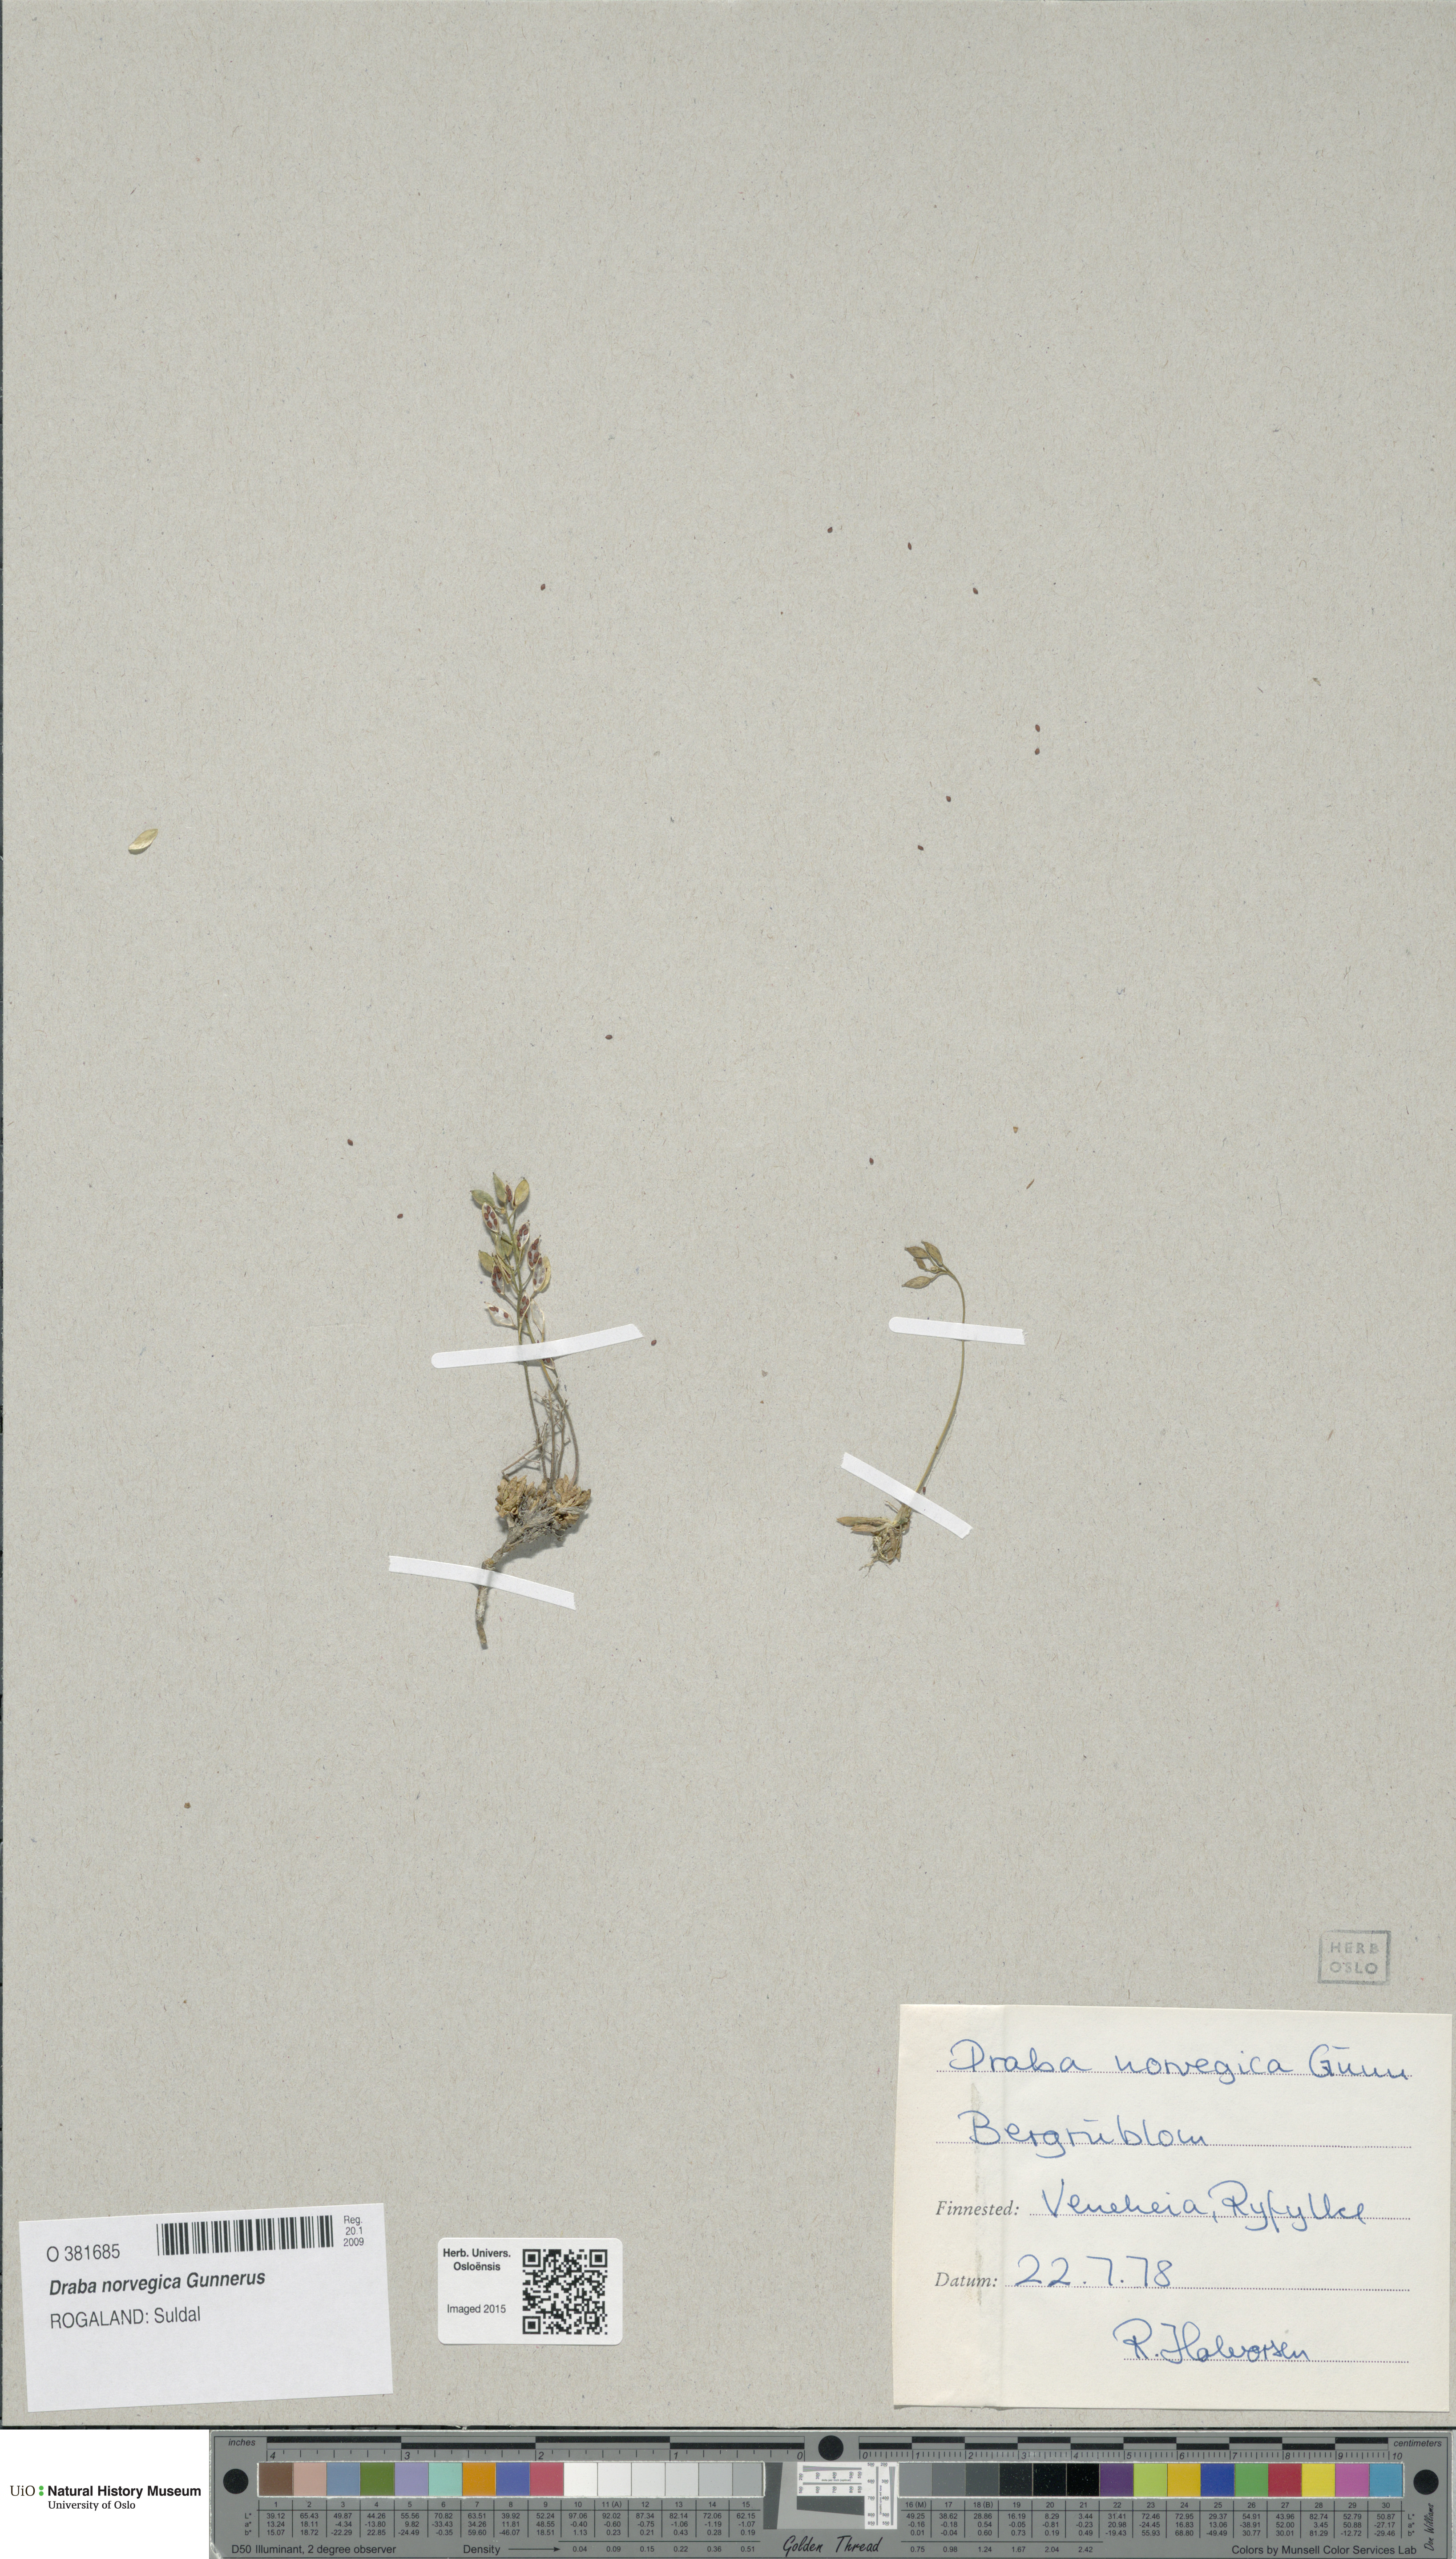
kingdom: Plantae
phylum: Tracheophyta
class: Magnoliopsida
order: Brassicales
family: Brassicaceae
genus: Draba
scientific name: Draba norvegica
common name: Rock whitlowgrass
